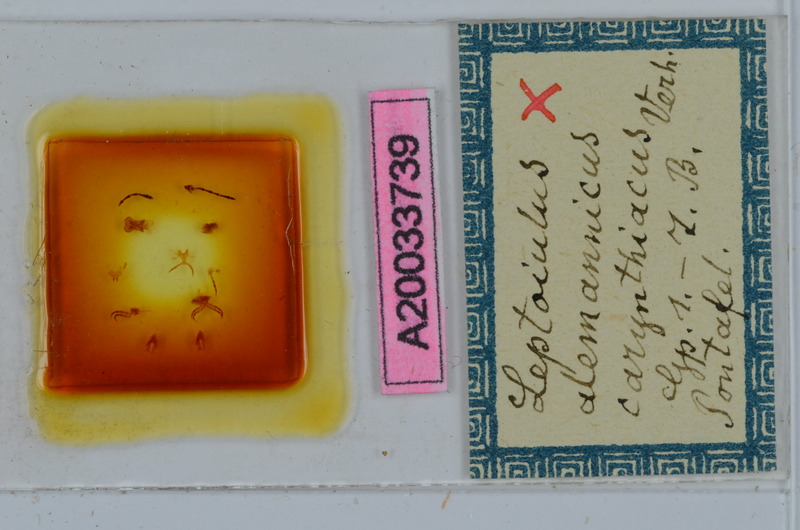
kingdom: Animalia
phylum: Arthropoda
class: Diplopoda
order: Julida
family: Julidae
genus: Leptoiulus
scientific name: Leptoiulus alemannicus
